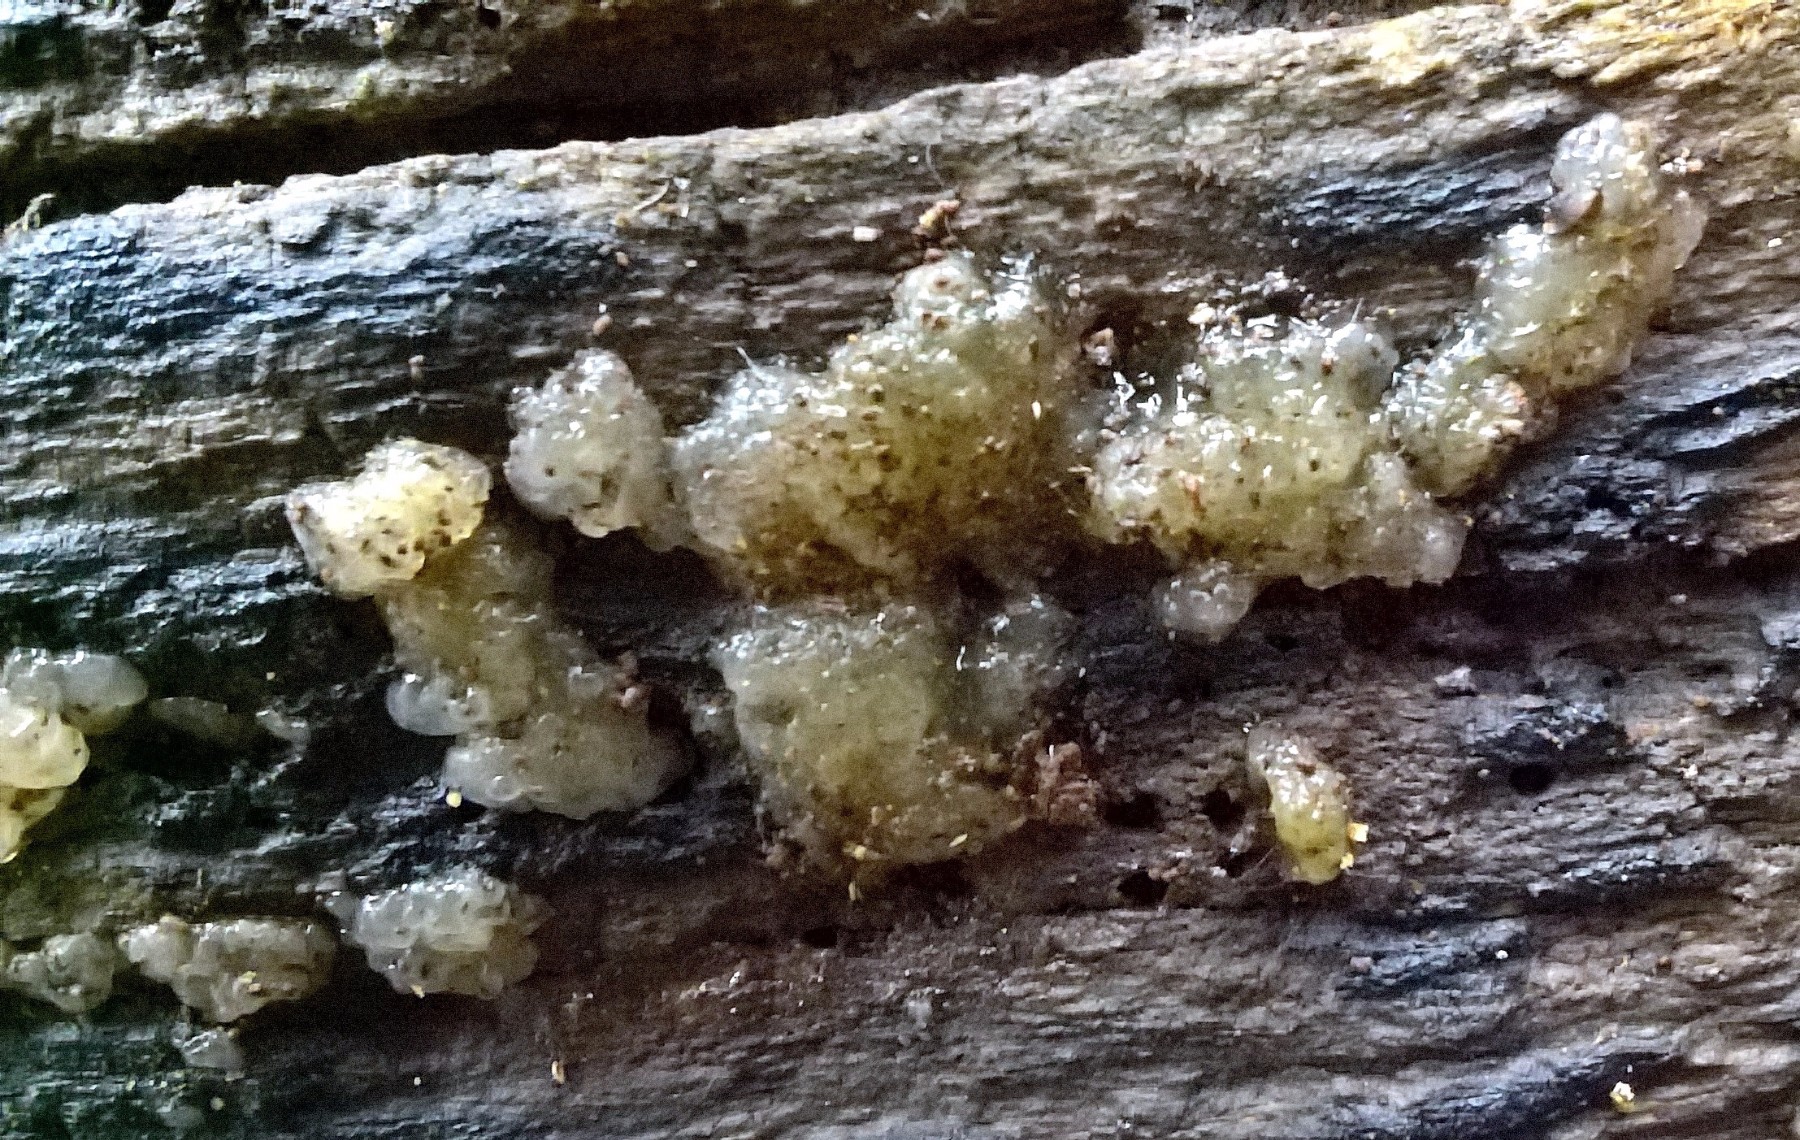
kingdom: Fungi
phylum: Basidiomycota
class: Agaricomycetes
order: Auriculariales
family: Hyaloriaceae
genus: Myxarium
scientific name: Myxarium nucleatum
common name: klar bævretop
